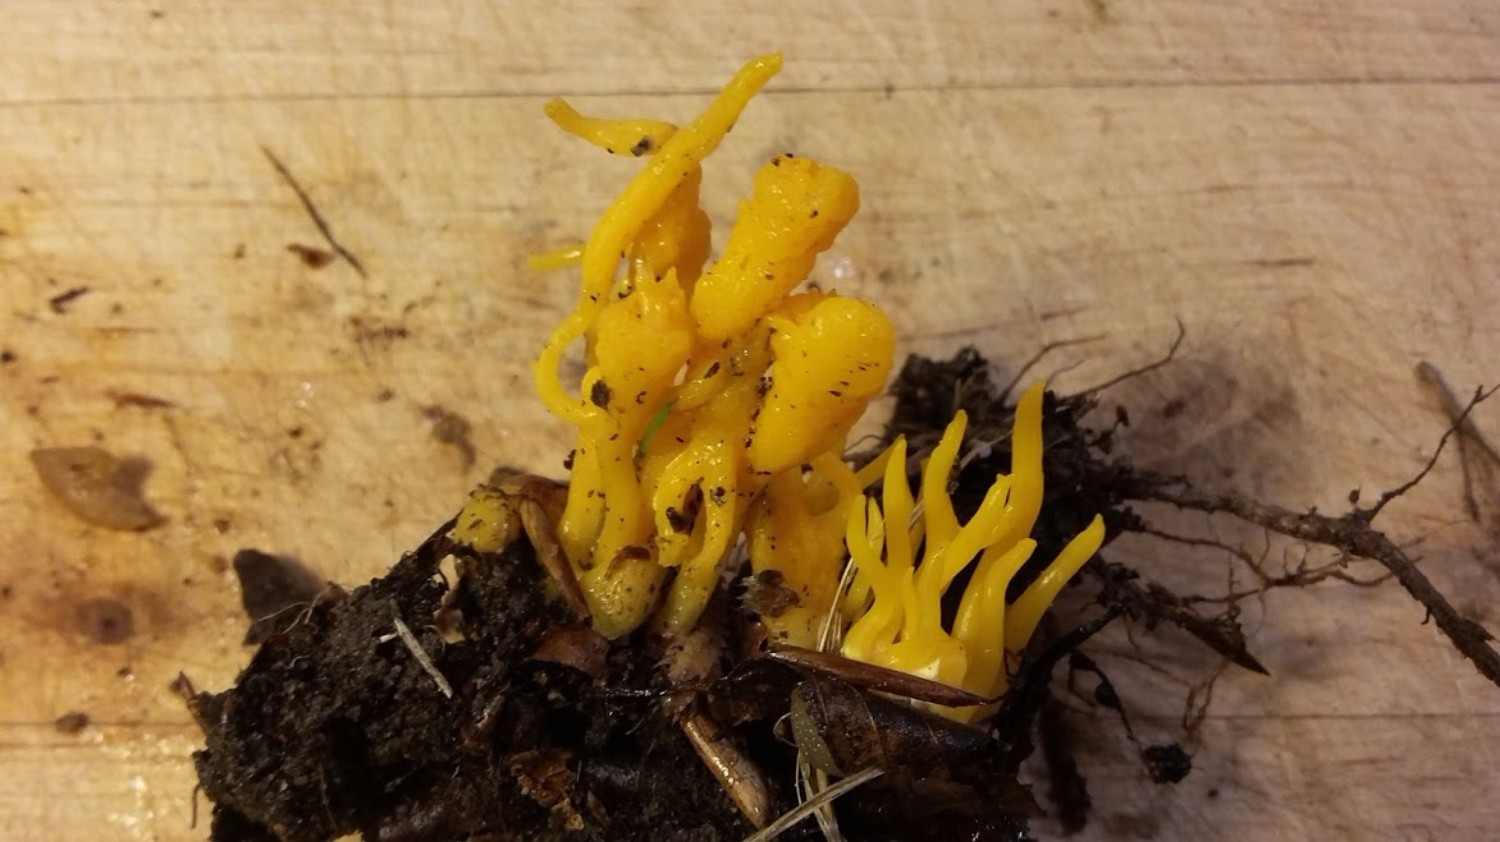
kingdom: Fungi
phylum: Basidiomycota
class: Dacrymycetes
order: Dacrymycetales
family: Dacrymycetaceae
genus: Calocera
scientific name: Calocera viscosa
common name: almindelig guldgaffel
